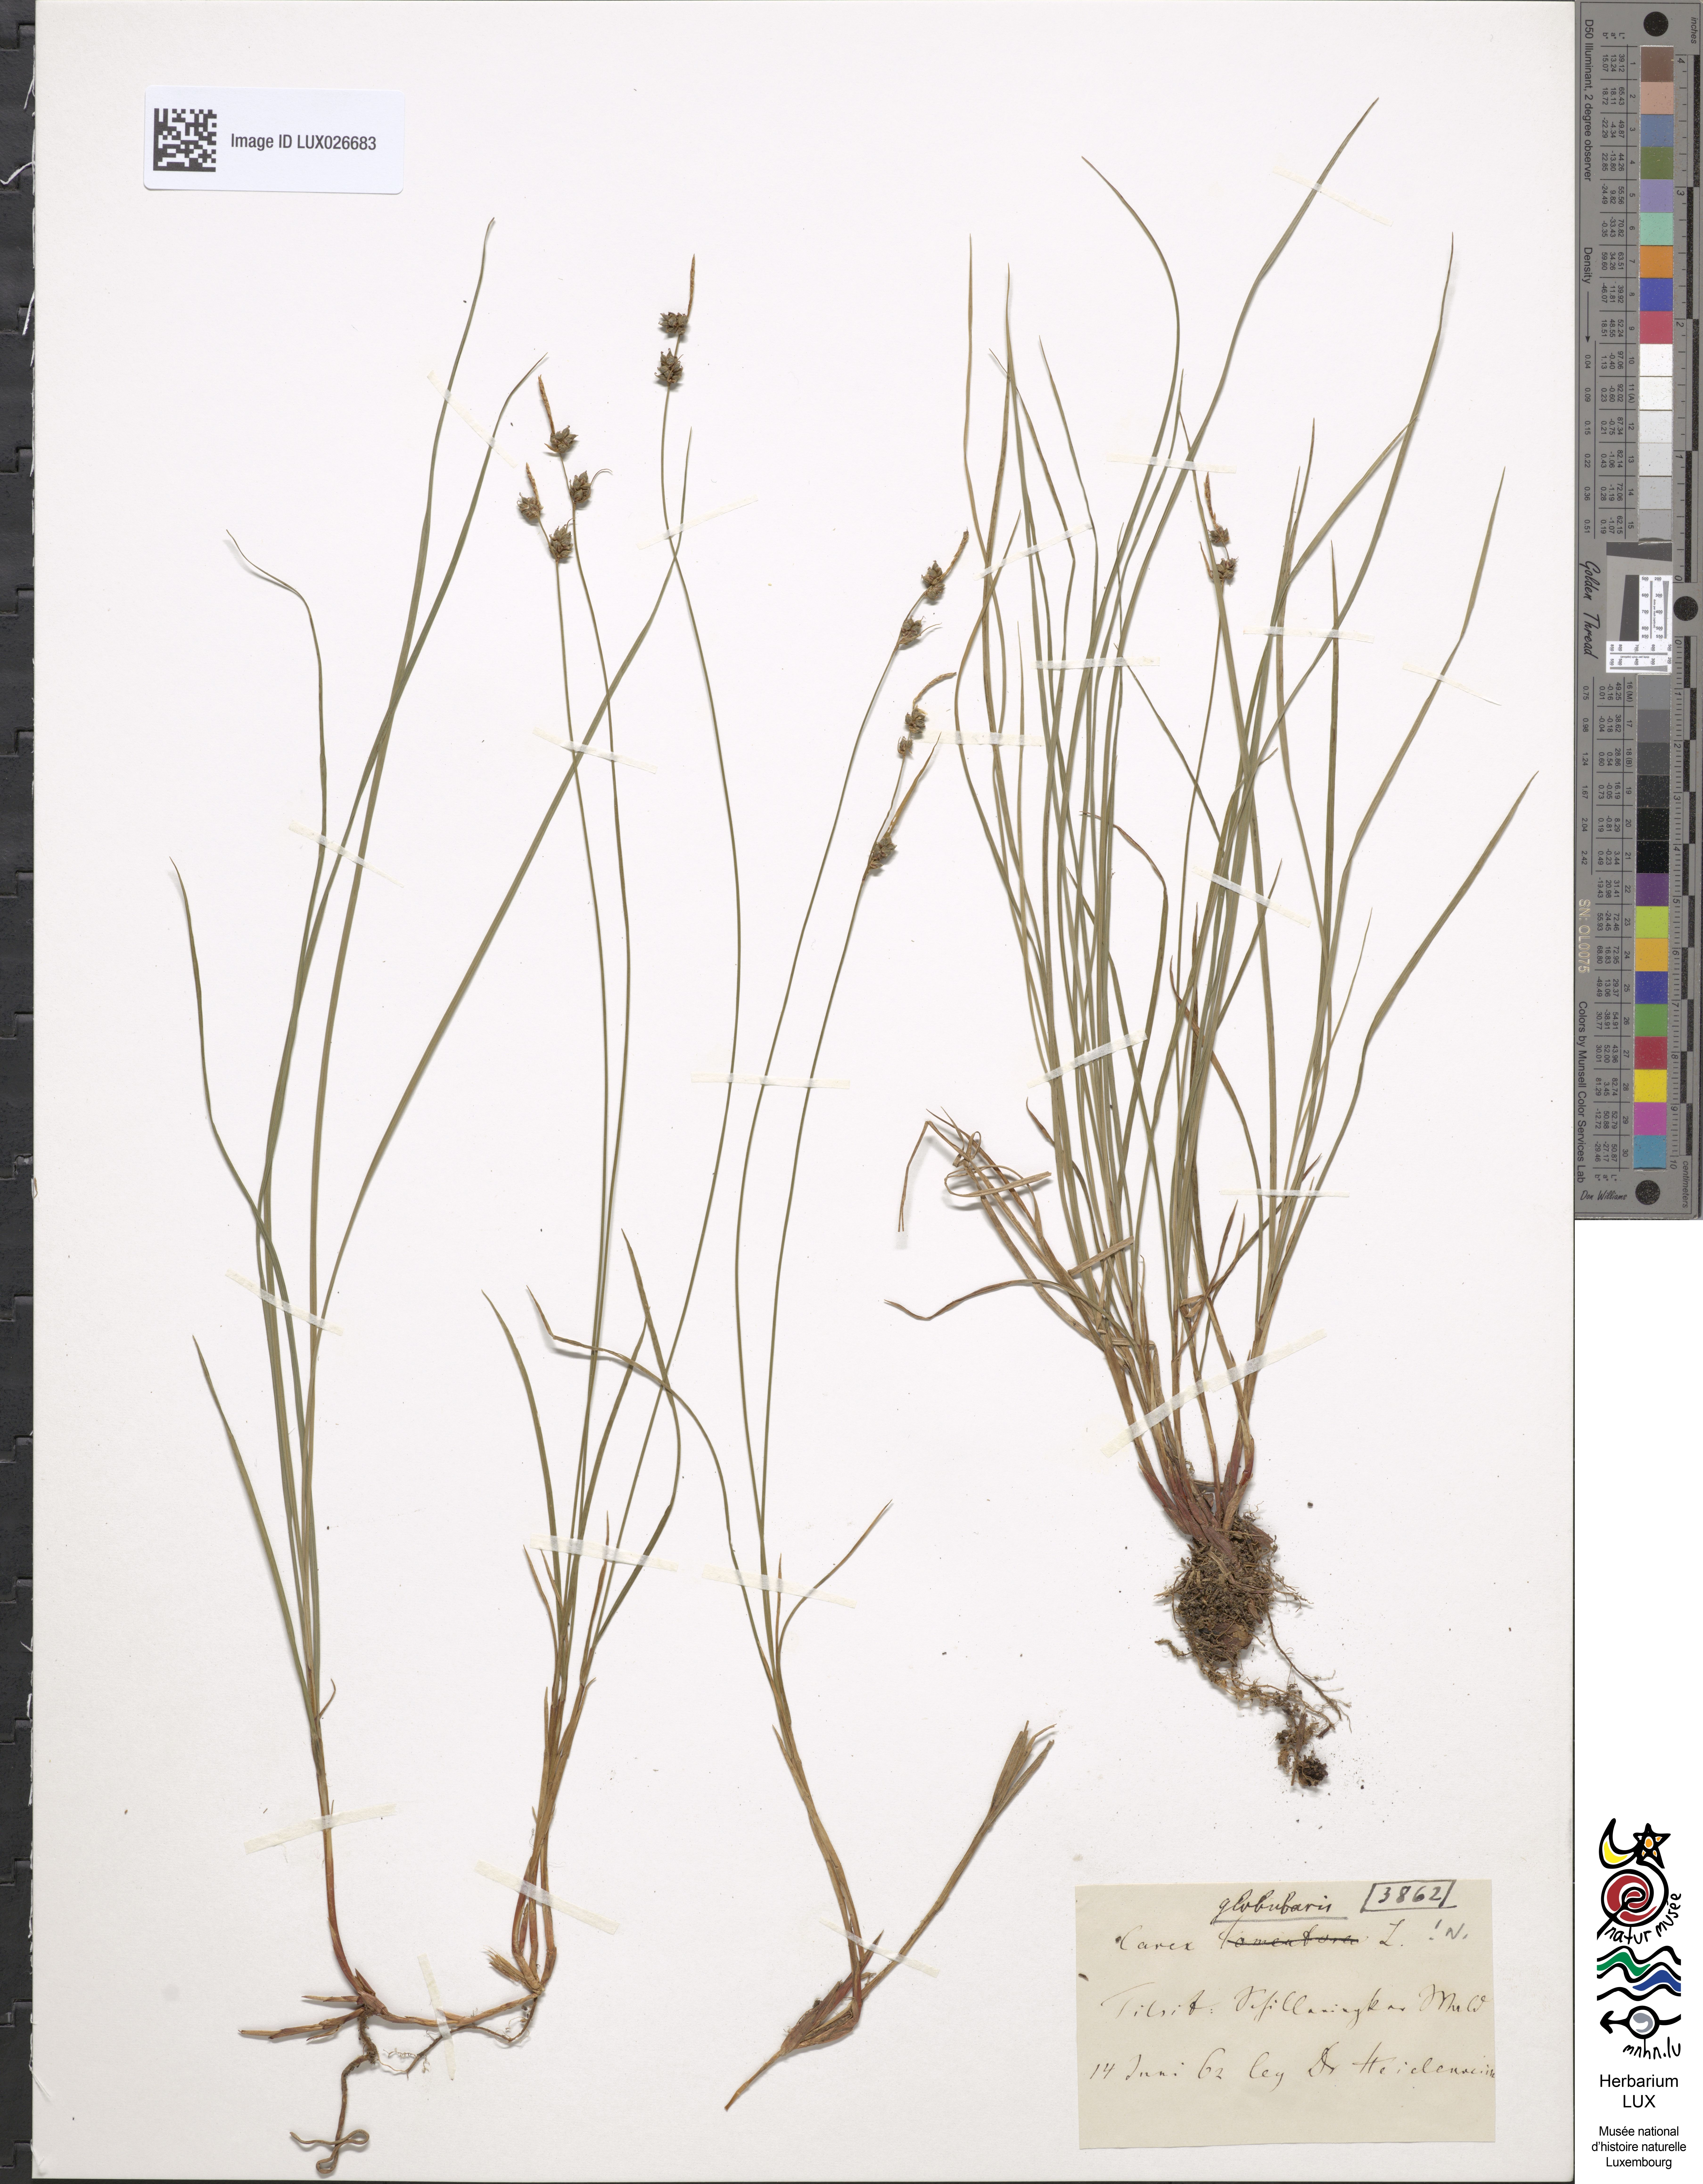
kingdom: Plantae
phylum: Tracheophyta
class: Liliopsida
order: Poales
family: Cyperaceae
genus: Carex
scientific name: Carex globularis
